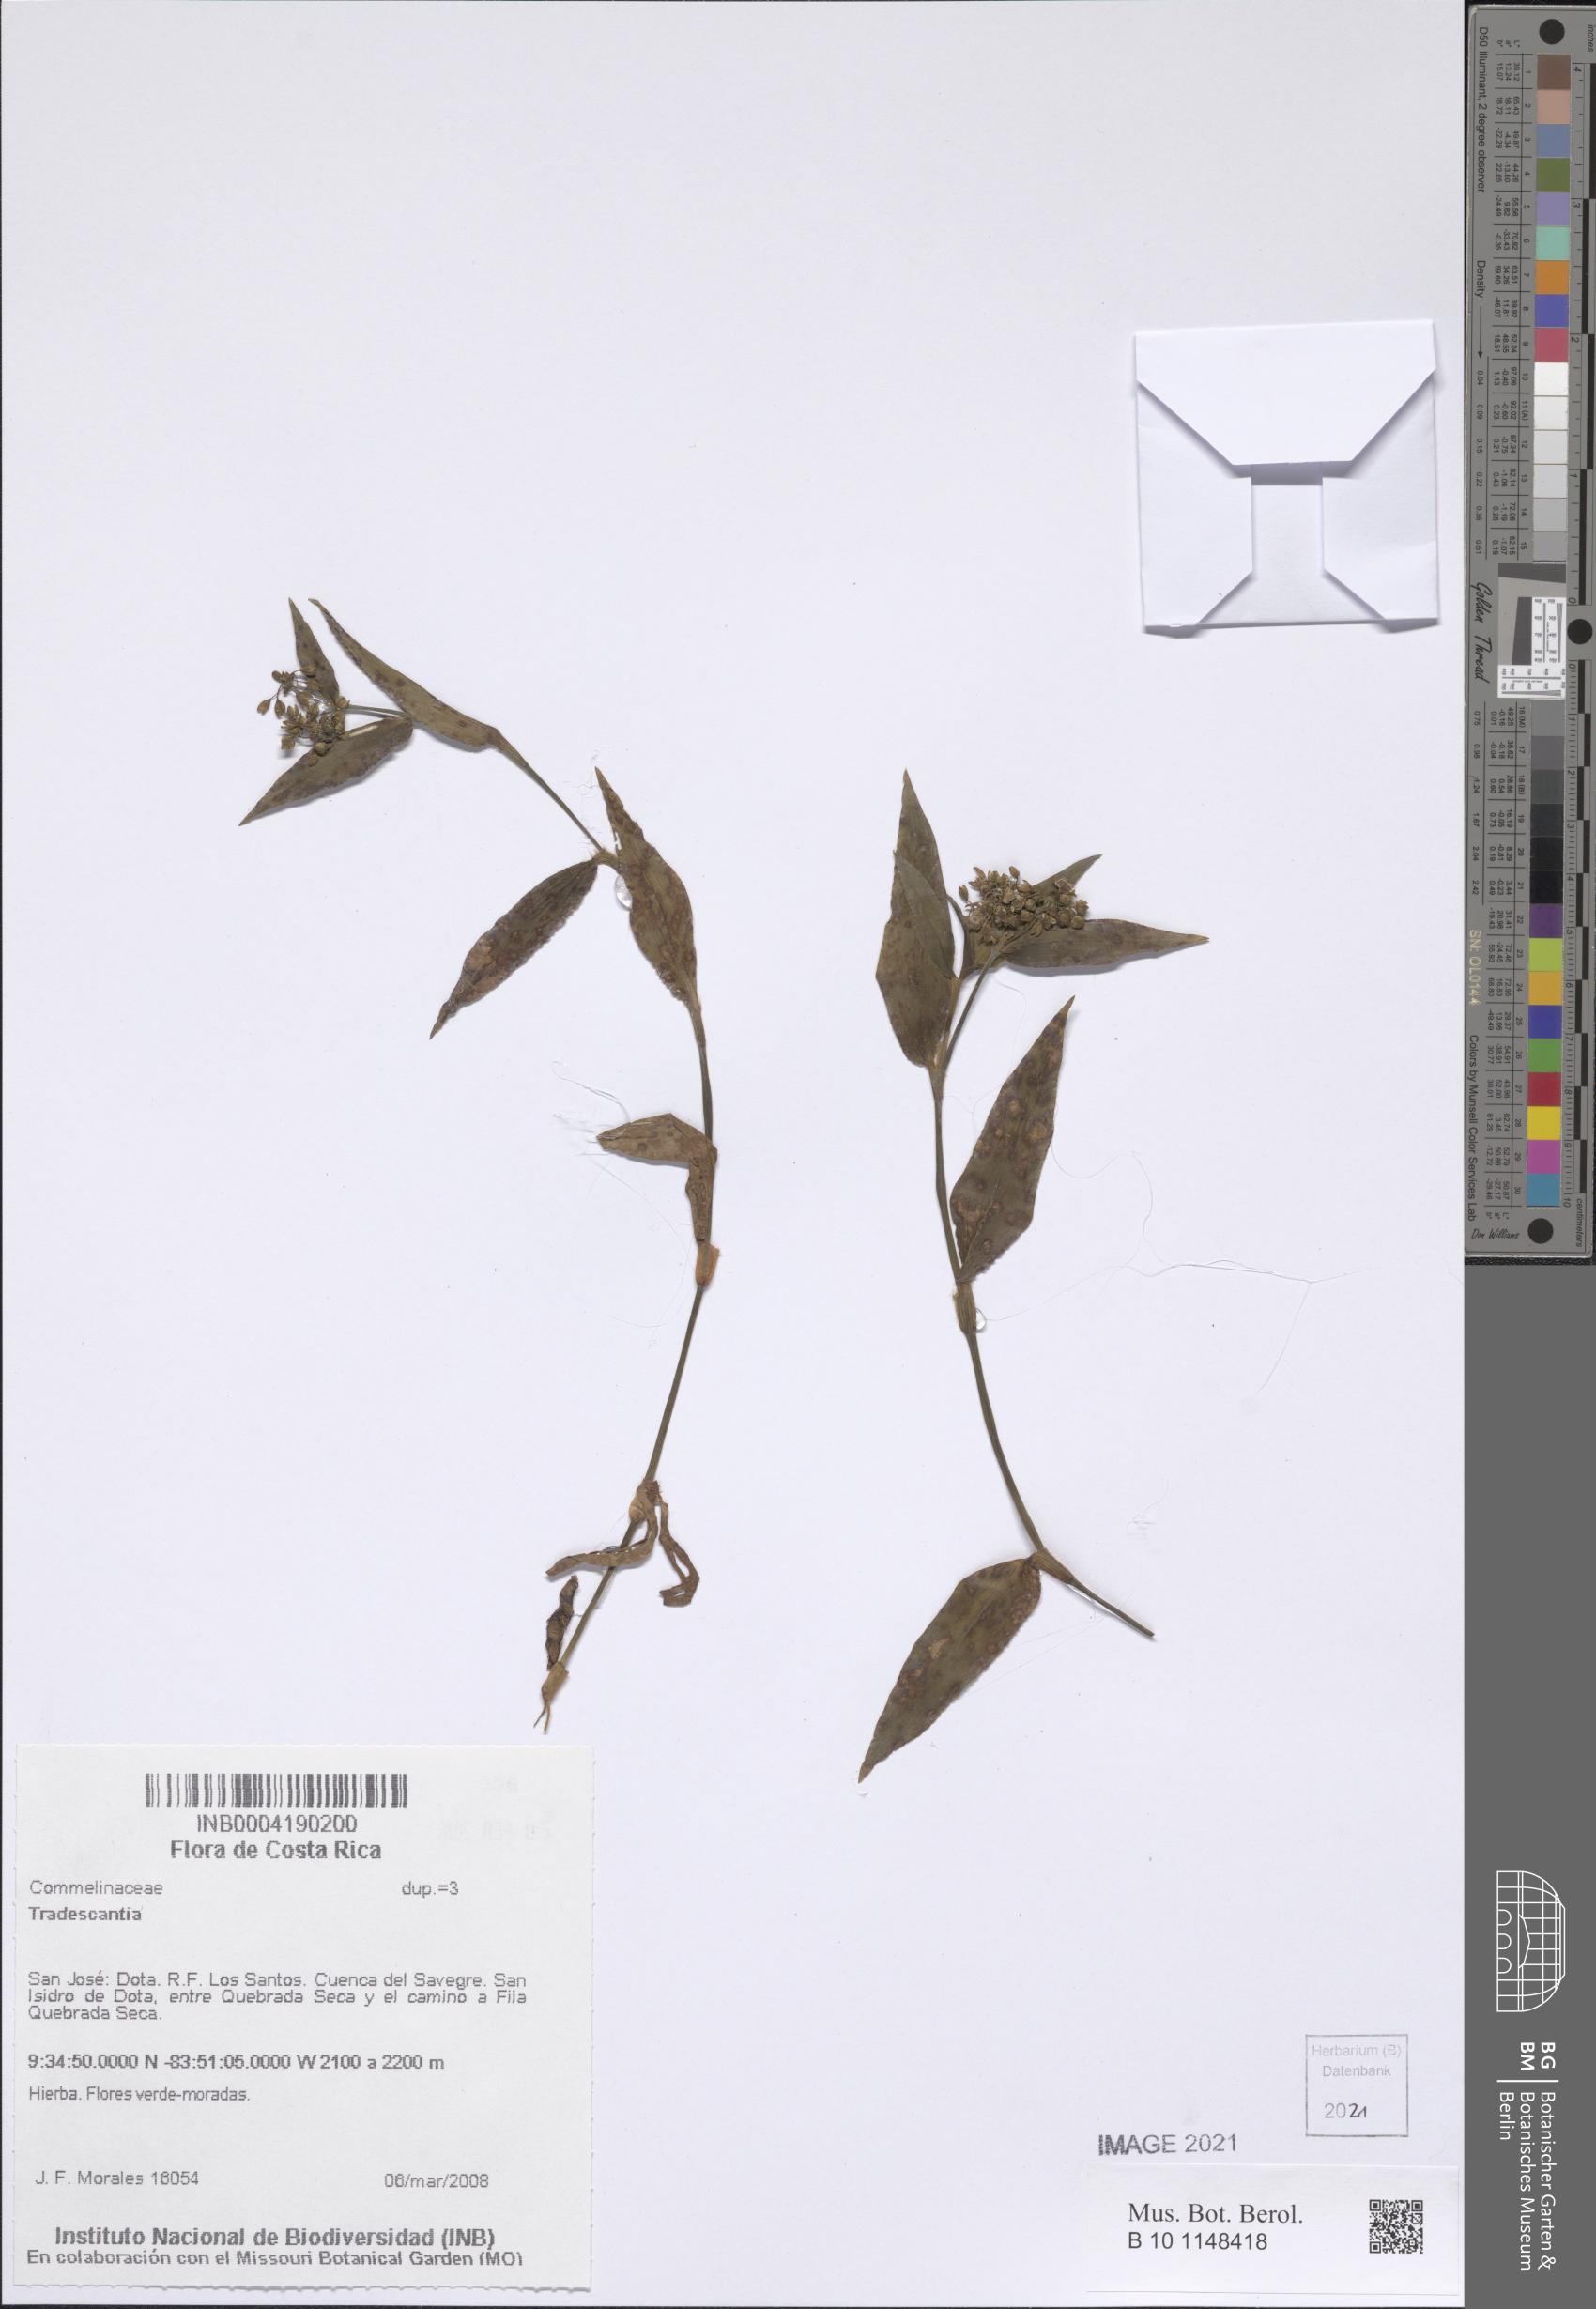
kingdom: Plantae
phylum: Tracheophyta
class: Liliopsida
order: Commelinales
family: Commelinaceae
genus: Tradescantia
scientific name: Tradescantia
